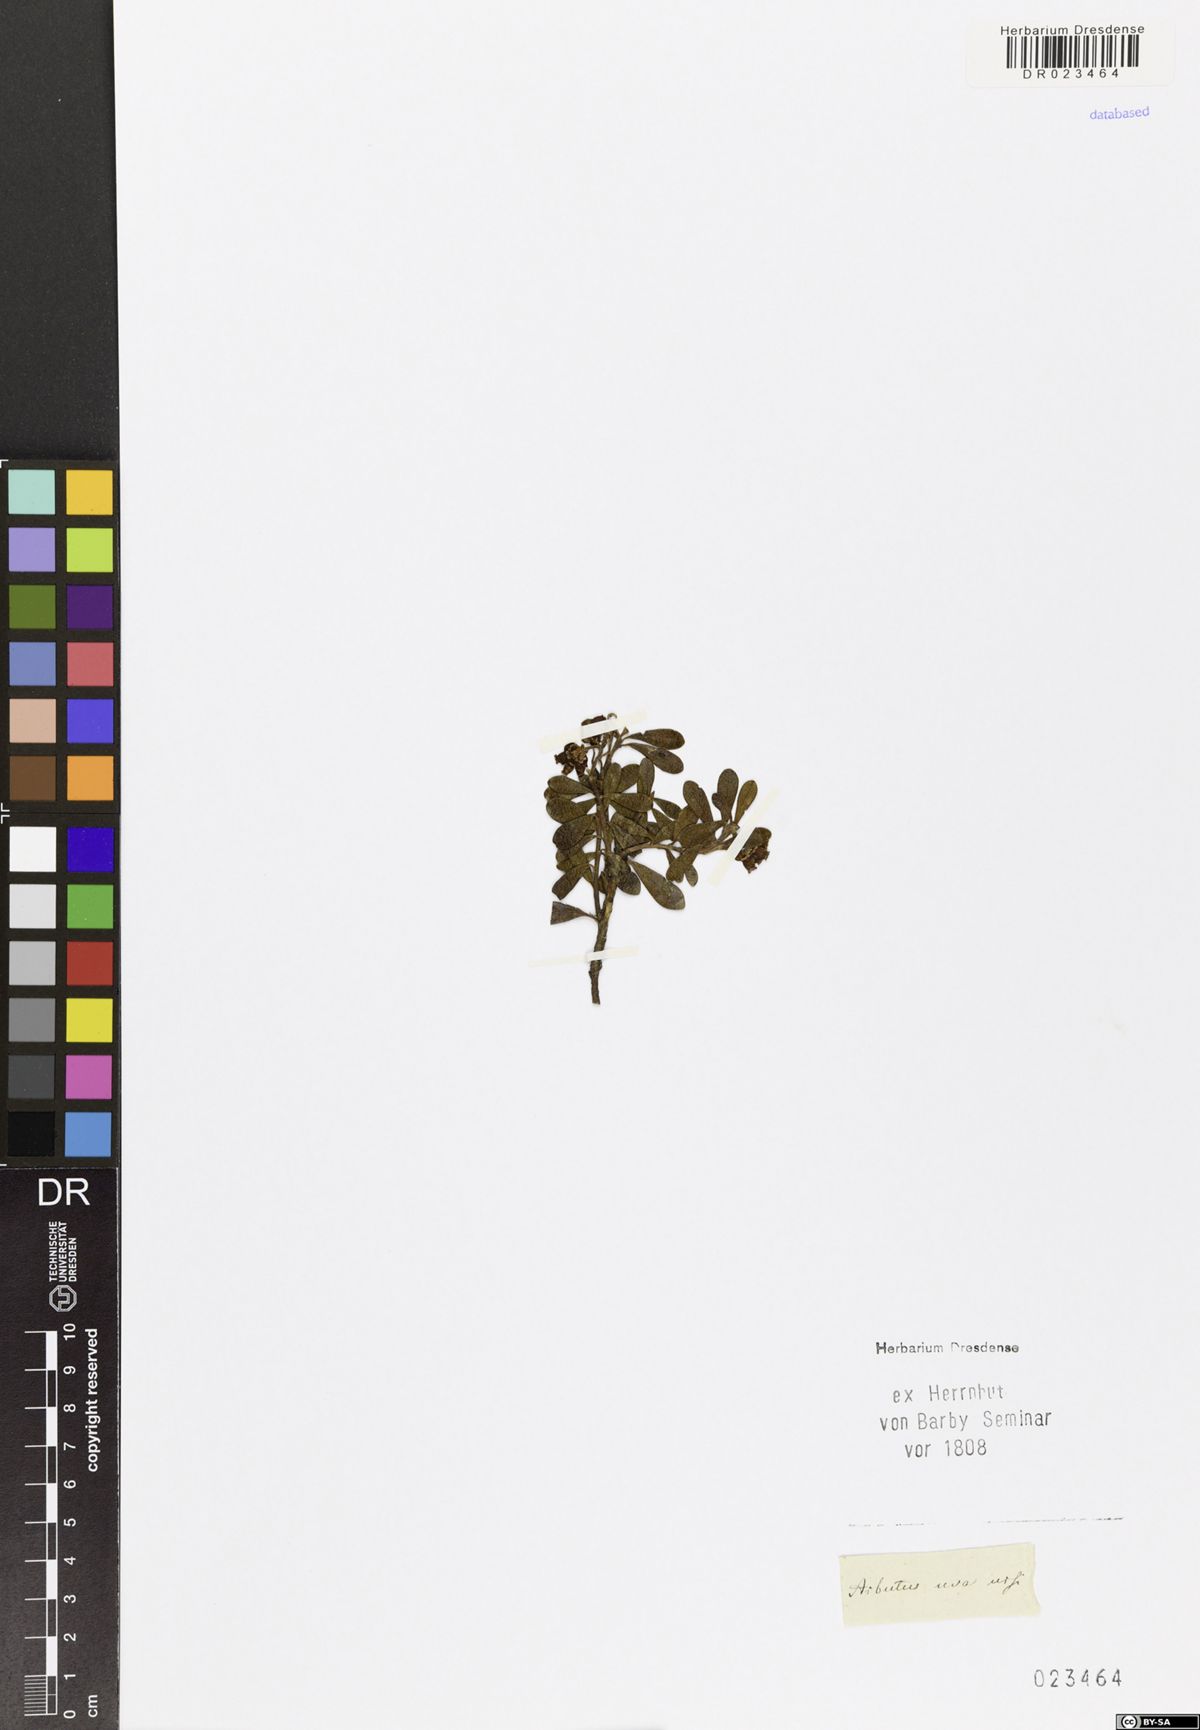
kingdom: Plantae
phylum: Tracheophyta
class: Magnoliopsida
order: Ericales
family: Ericaceae
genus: Arctostaphylos
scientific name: Arctostaphylos uva-ursi
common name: Bearberry
